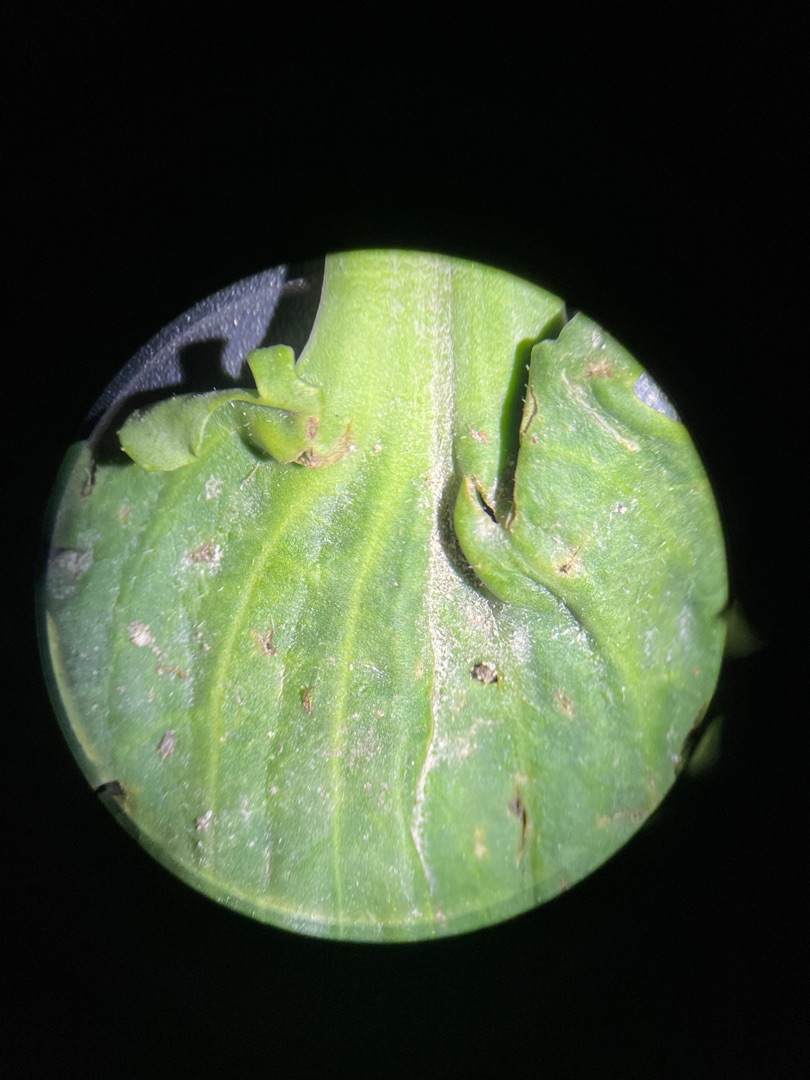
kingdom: Plantae
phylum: Tracheophyta
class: Magnoliopsida
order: Lamiales
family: Plantaginaceae
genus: Plantago
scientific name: Plantago major
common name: Glat vejbred
